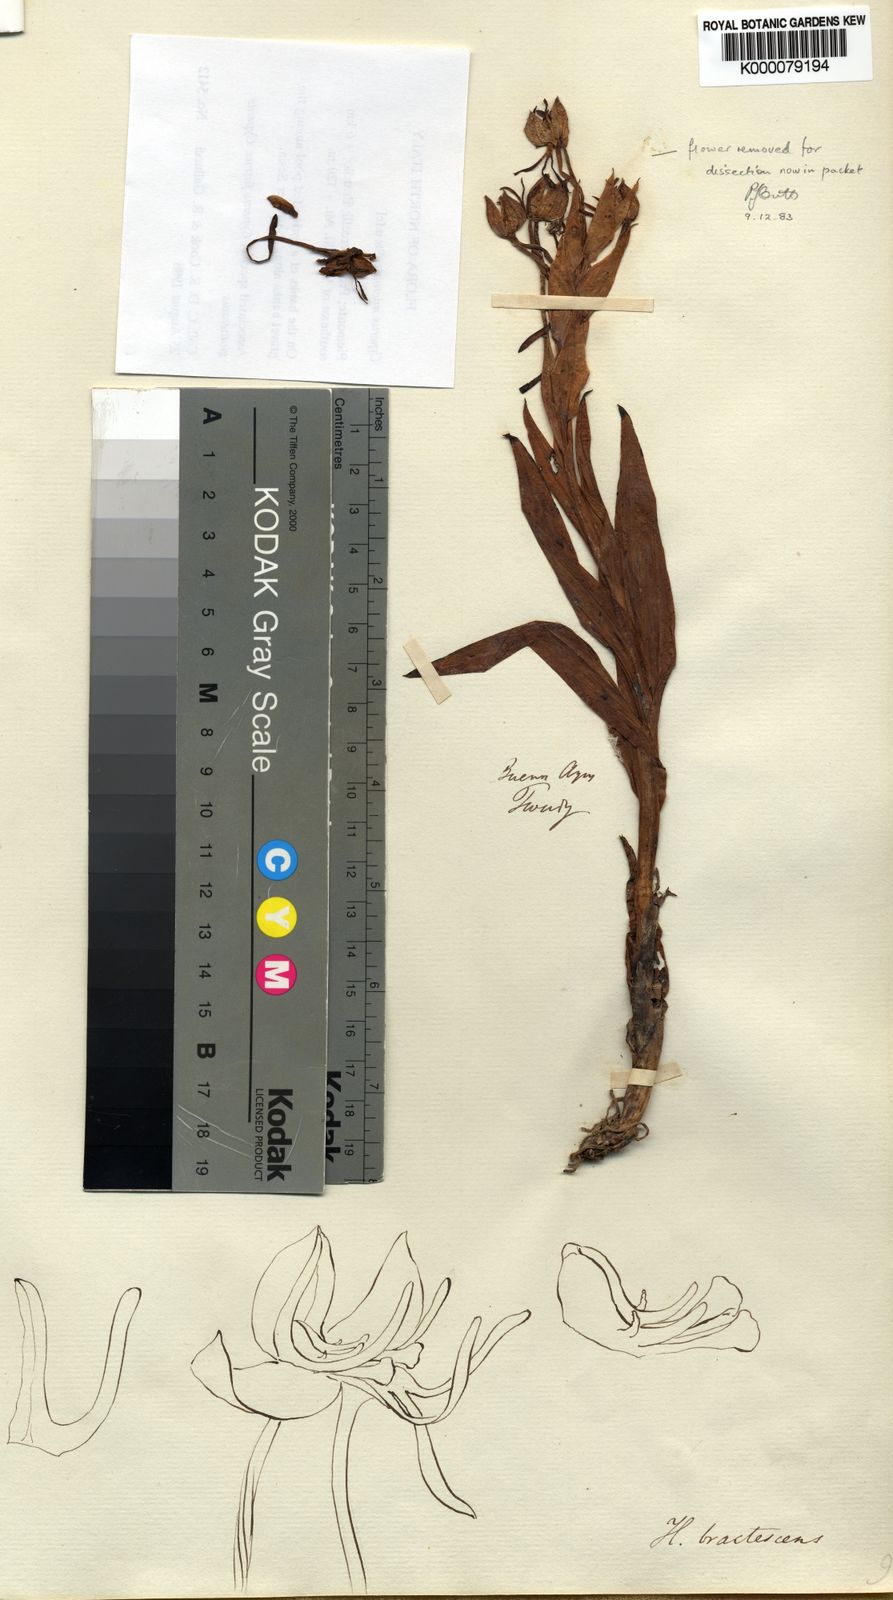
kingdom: Plantae
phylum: Tracheophyta
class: Liliopsida
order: Asparagales
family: Orchidaceae
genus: Habenaria
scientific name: Habenaria bractescens
